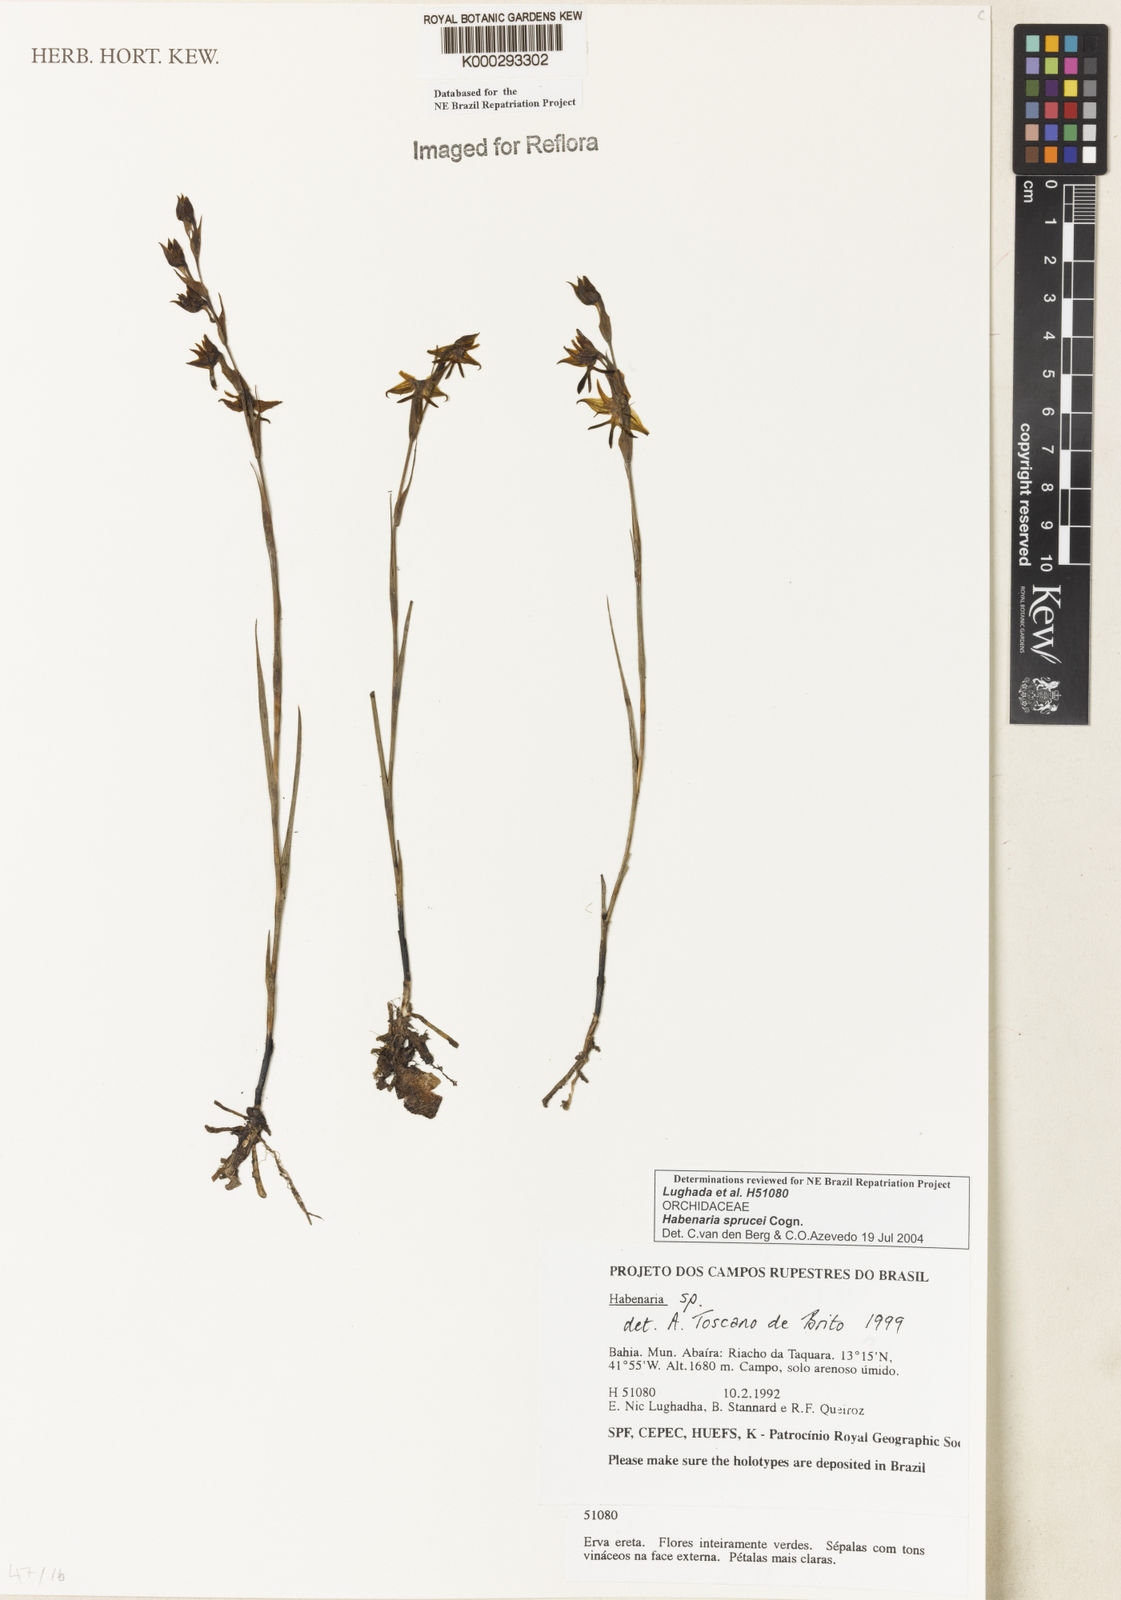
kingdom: Plantae
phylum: Tracheophyta
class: Liliopsida
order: Asparagales
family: Orchidaceae
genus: Habenaria
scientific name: Habenaria sprucei
